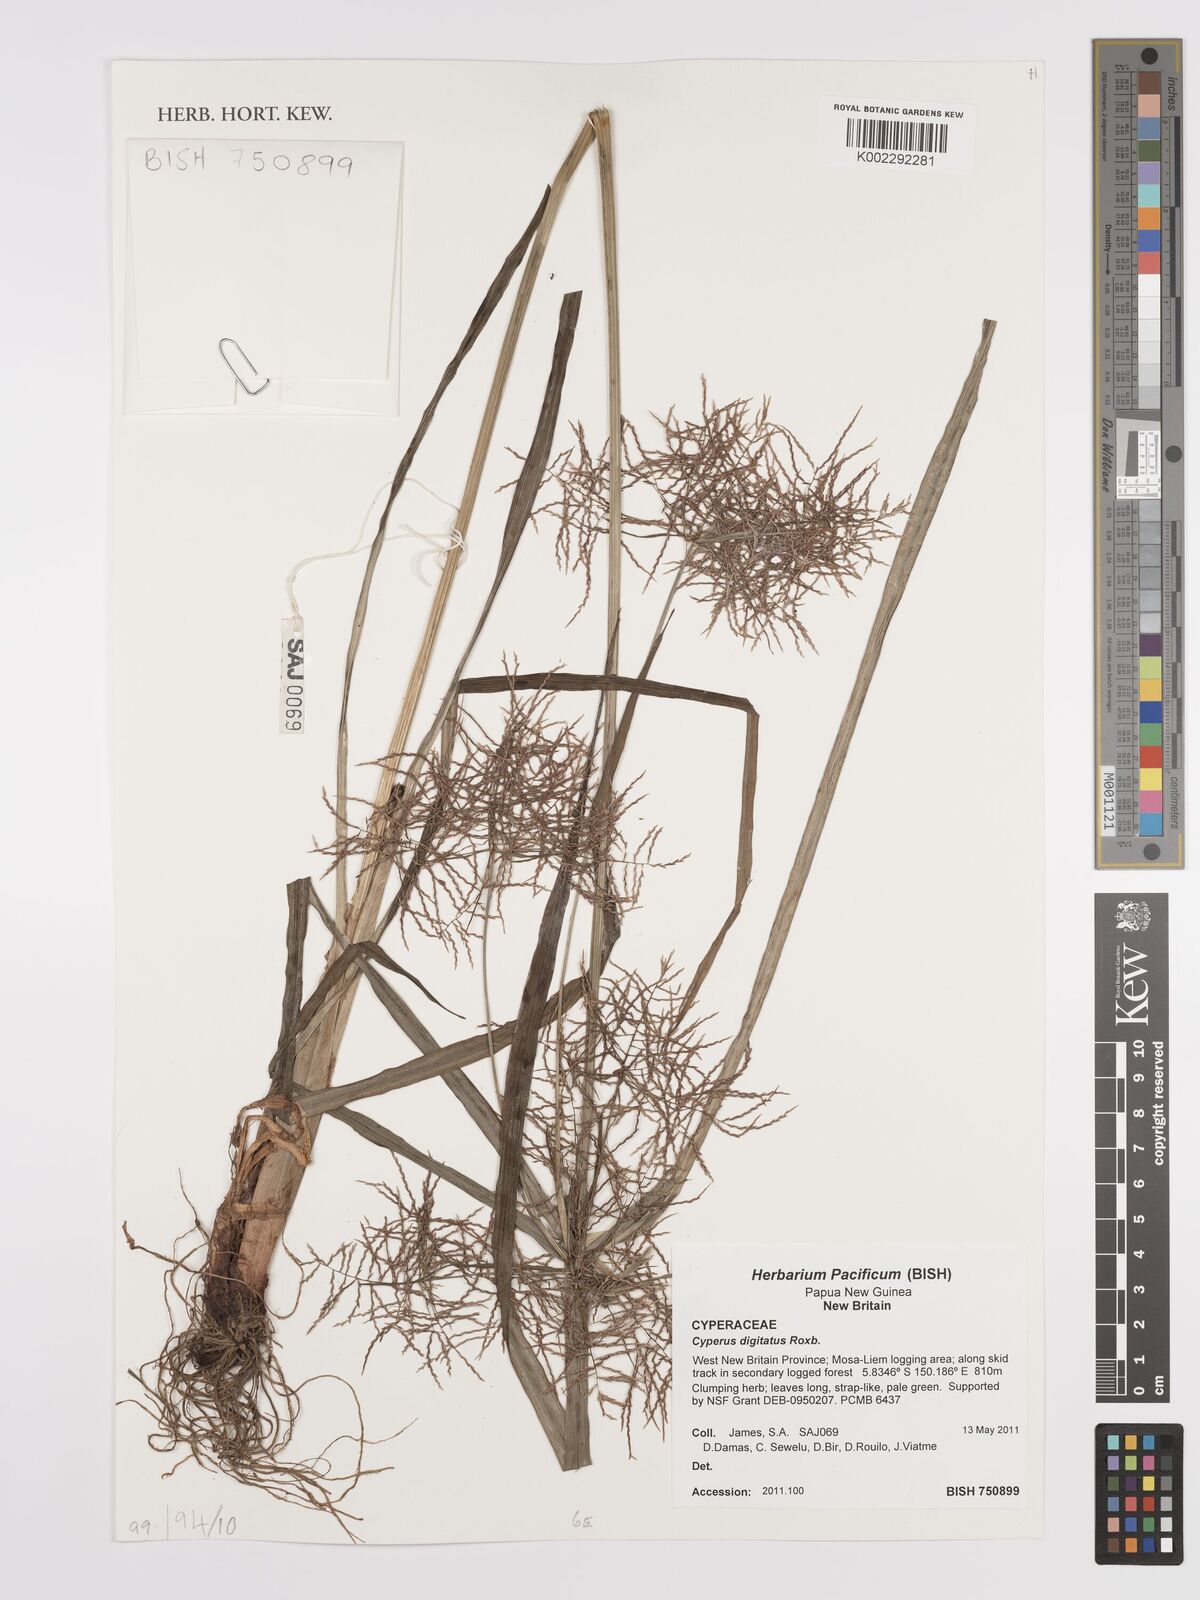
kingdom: Plantae
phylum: Tracheophyta
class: Liliopsida
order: Poales
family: Cyperaceae
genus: Cyperus
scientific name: Cyperus digitatus
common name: Finger flatsedge
